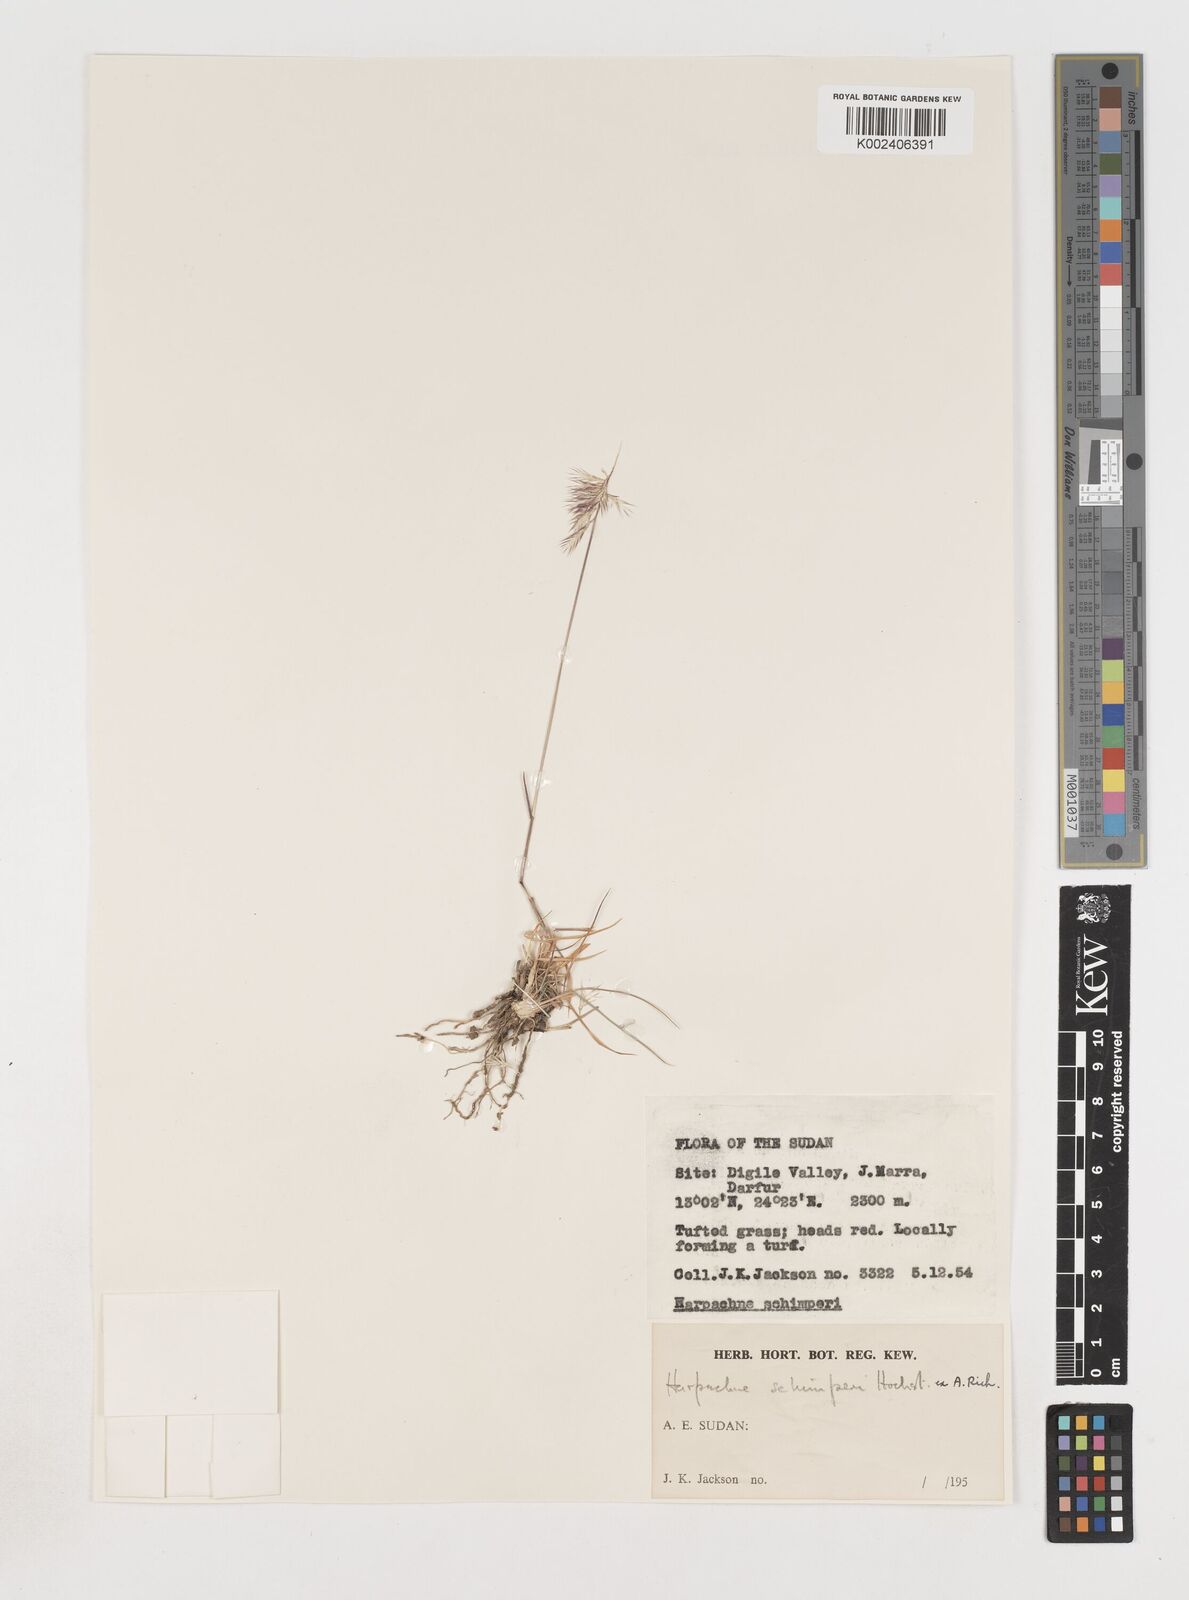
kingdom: Plantae
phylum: Tracheophyta
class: Liliopsida
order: Poales
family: Poaceae
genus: Harpachne
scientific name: Harpachne schimperi
